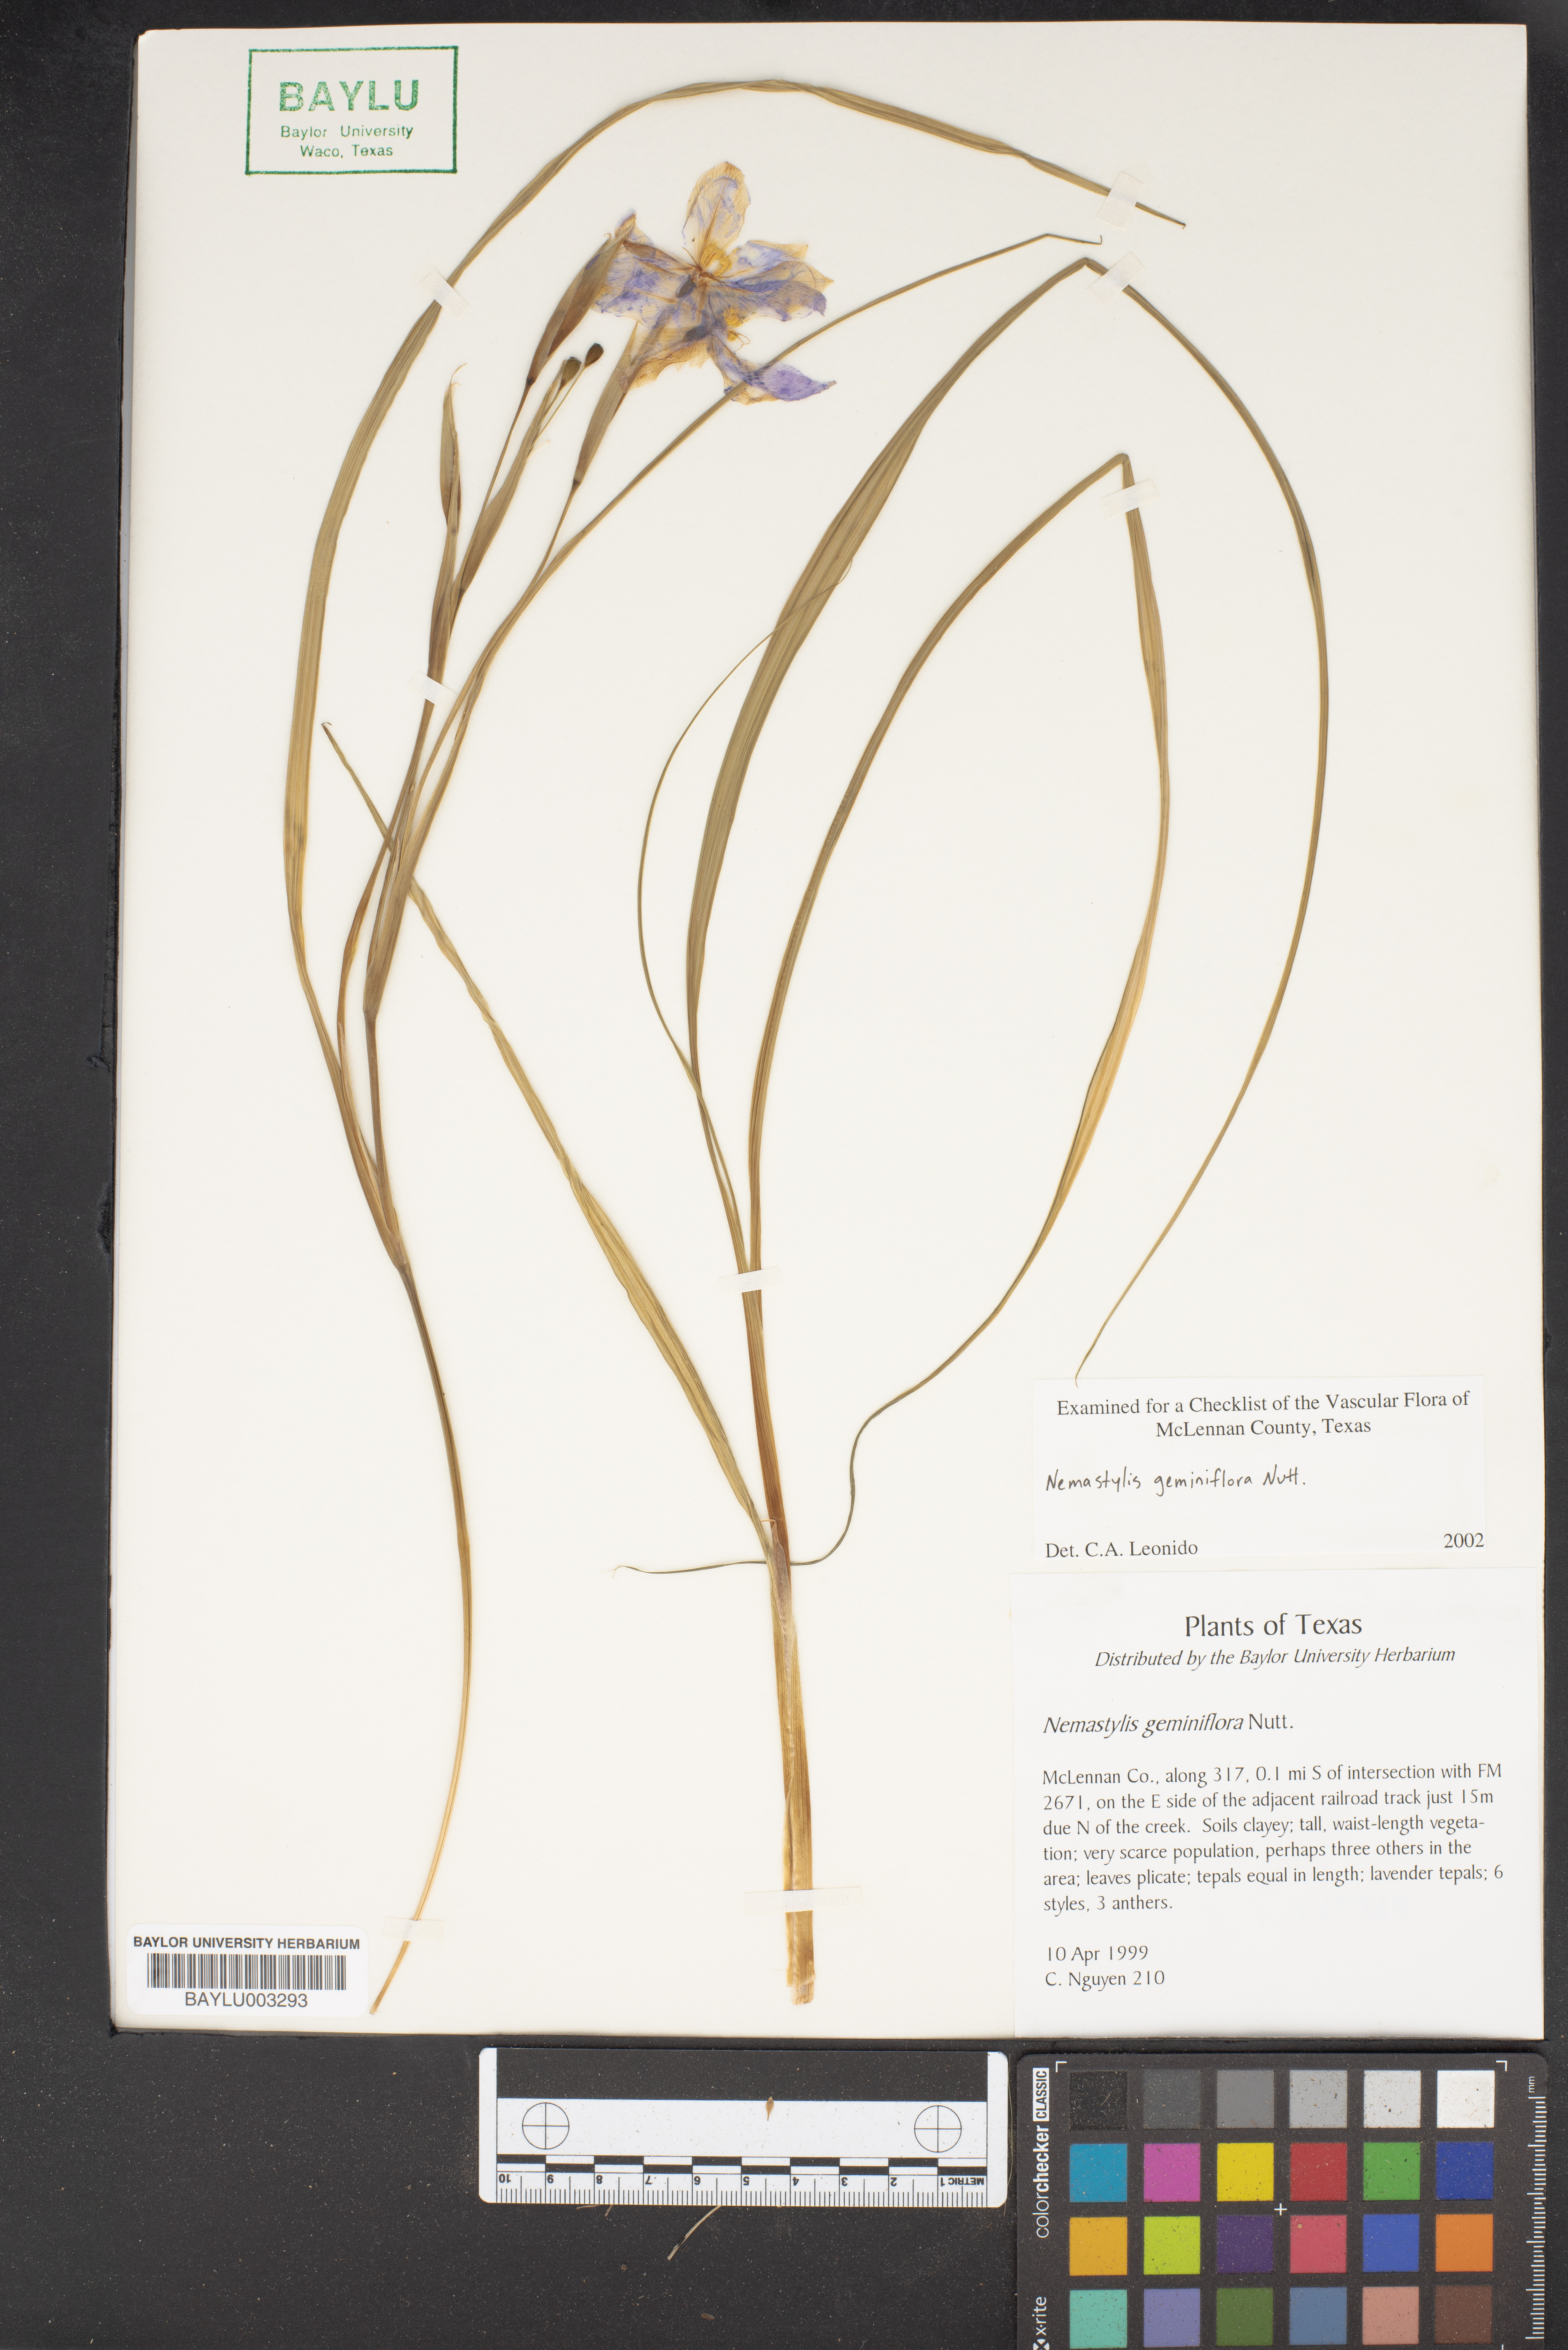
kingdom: Plantae
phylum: Tracheophyta
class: Liliopsida
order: Asparagales
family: Iridaceae
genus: Nemastylis
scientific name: Nemastylis geminiflora
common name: Prairie celestial
